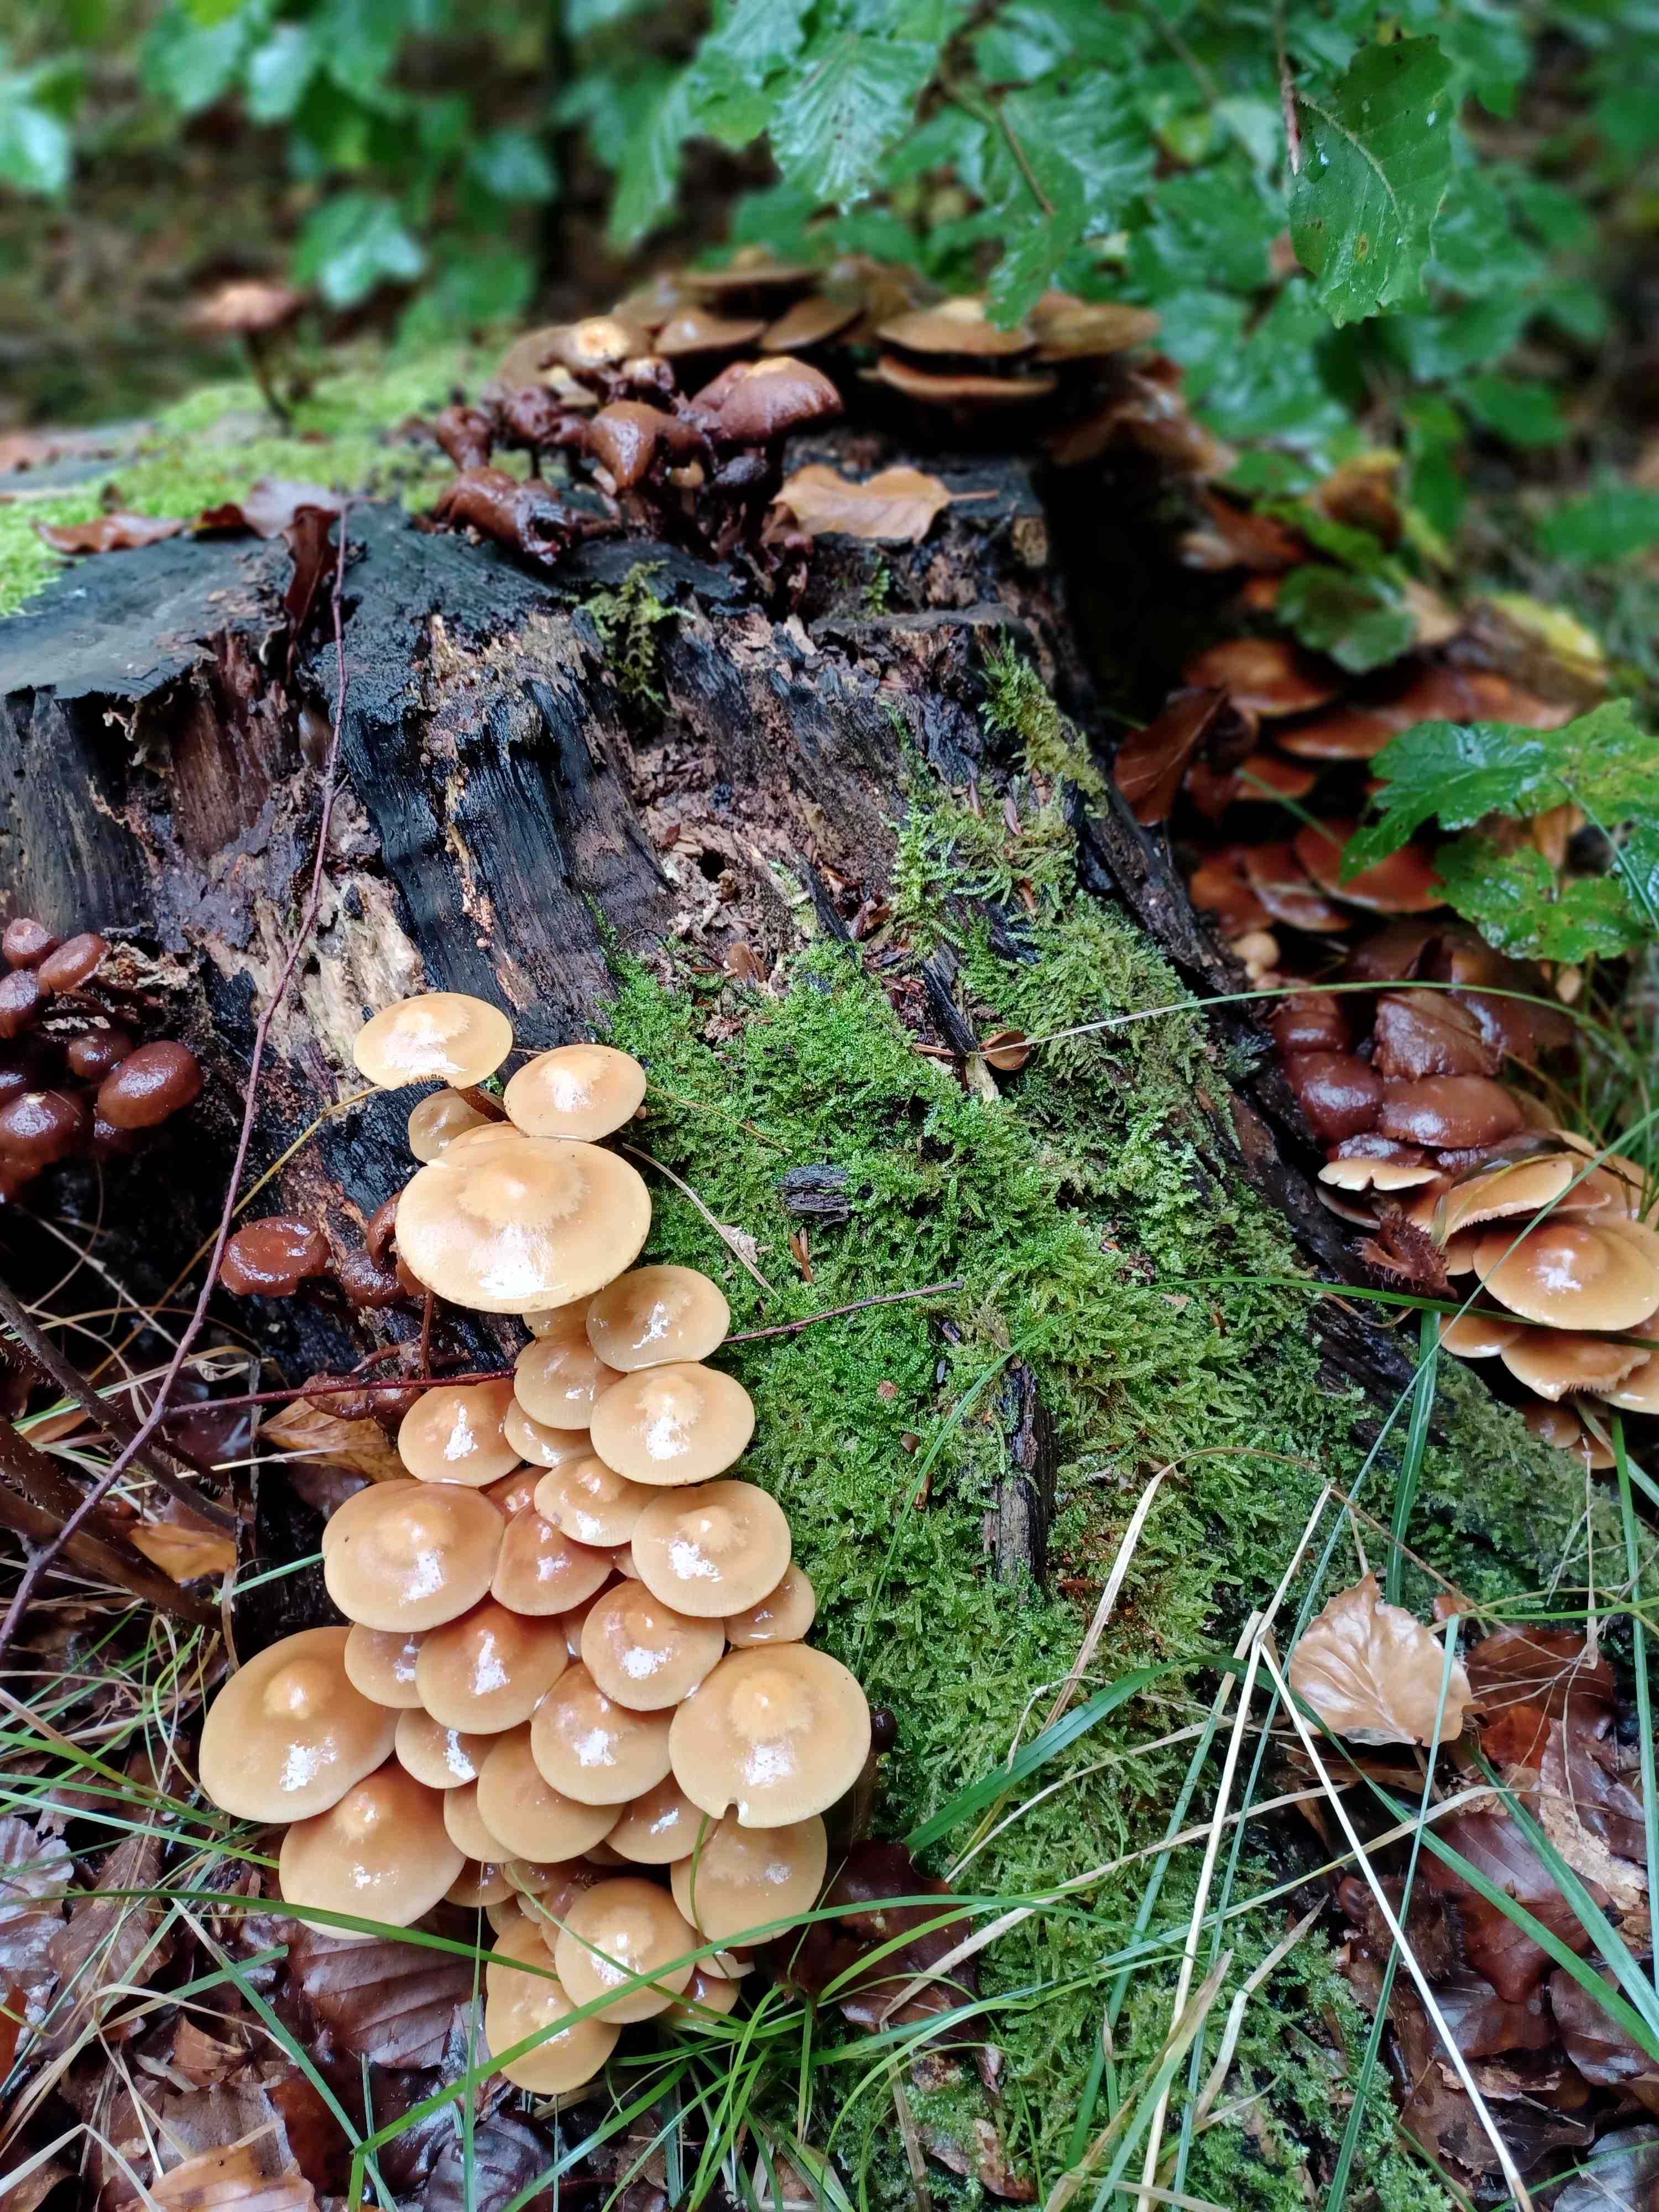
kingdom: Fungi
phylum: Basidiomycota
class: Agaricomycetes
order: Agaricales
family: Strophariaceae
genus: Kuehneromyces
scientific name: Kuehneromyces mutabilis
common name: foranderlig skælhat
